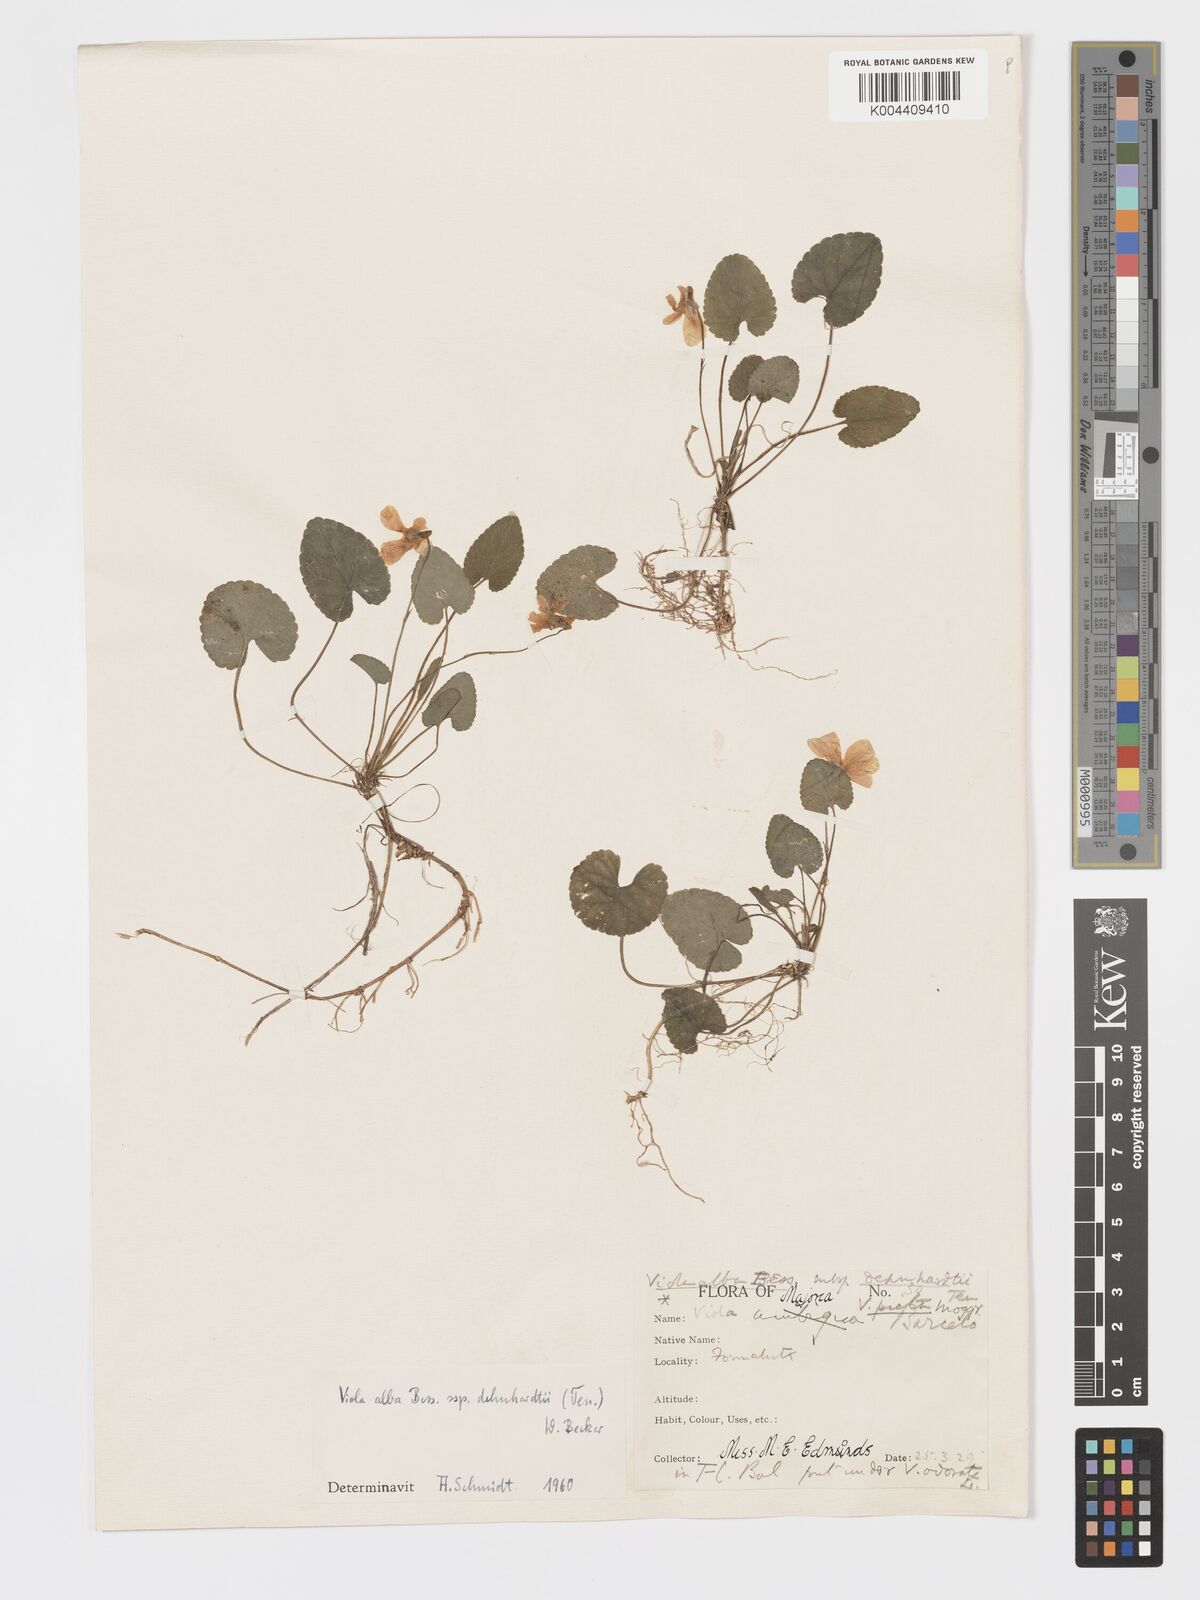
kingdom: Plantae
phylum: Tracheophyta
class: Magnoliopsida
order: Malpighiales
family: Violaceae
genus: Viola
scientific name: Viola alba
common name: White violet
